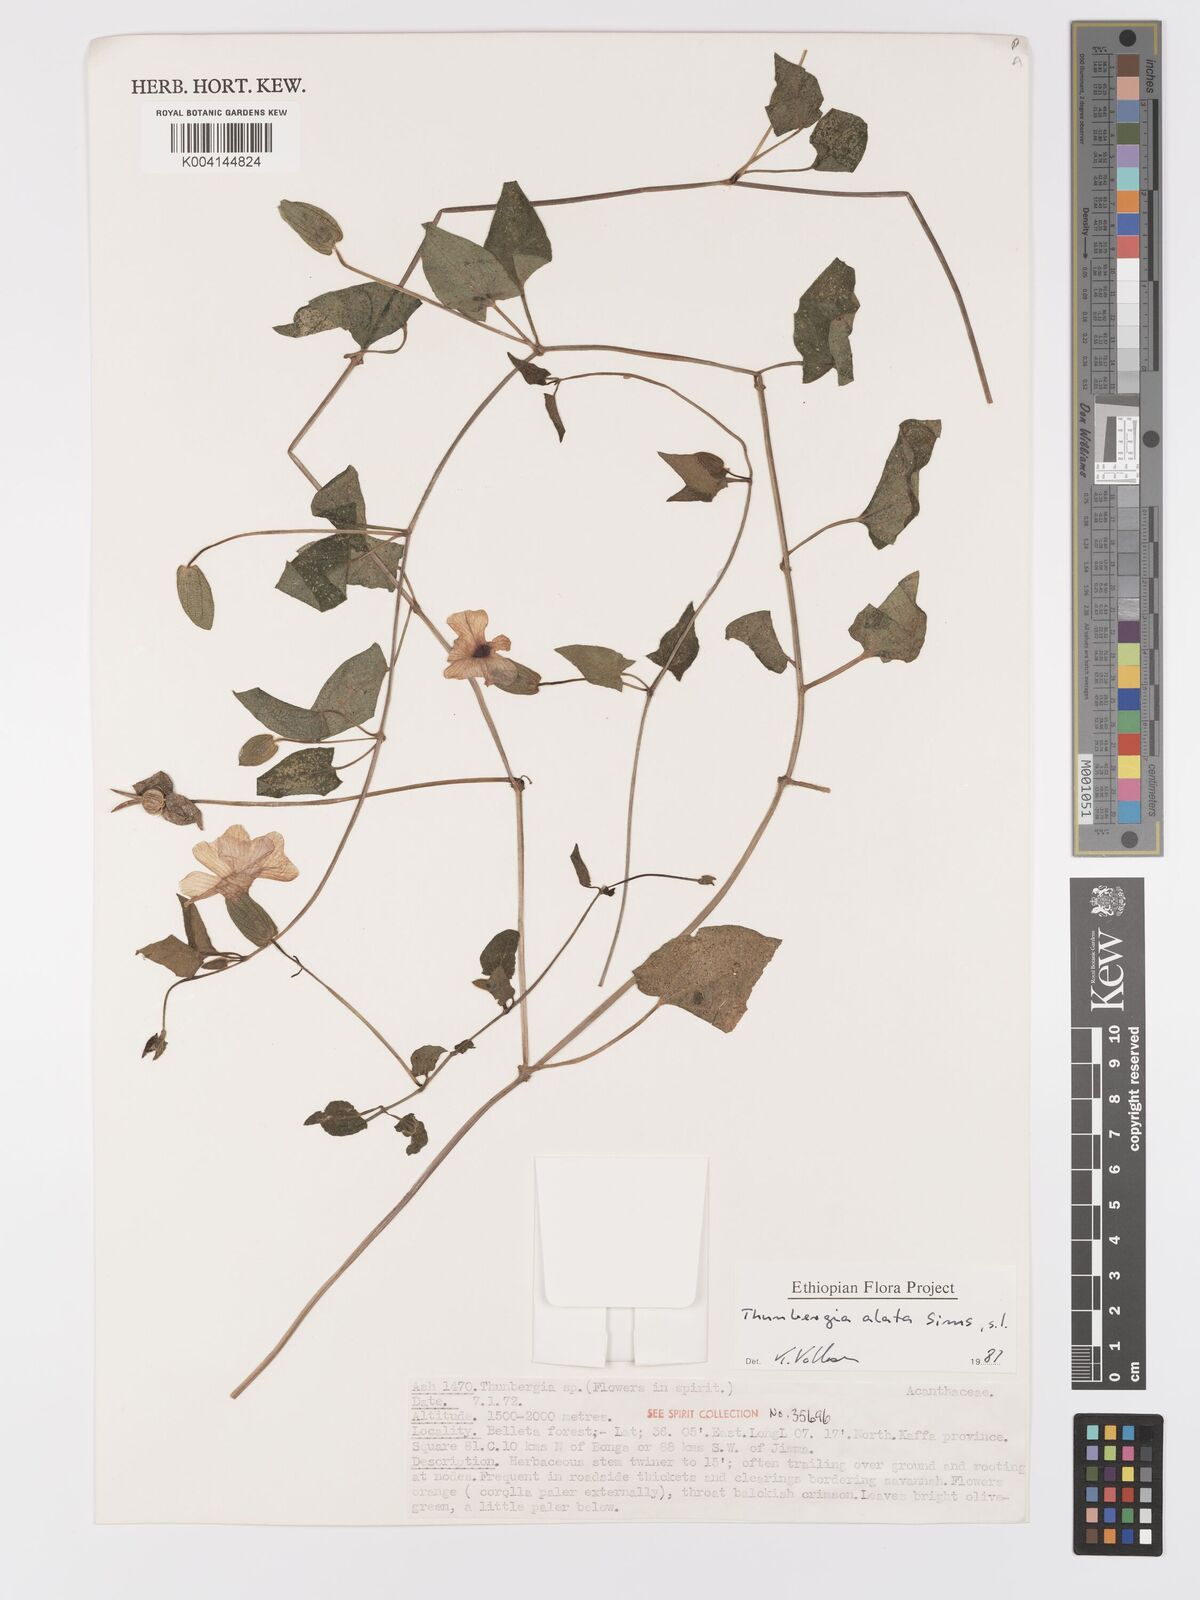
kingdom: Plantae
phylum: Tracheophyta
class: Magnoliopsida
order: Lamiales
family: Acanthaceae
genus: Thunbergia
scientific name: Thunbergia alata
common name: Blackeyed susan vine
